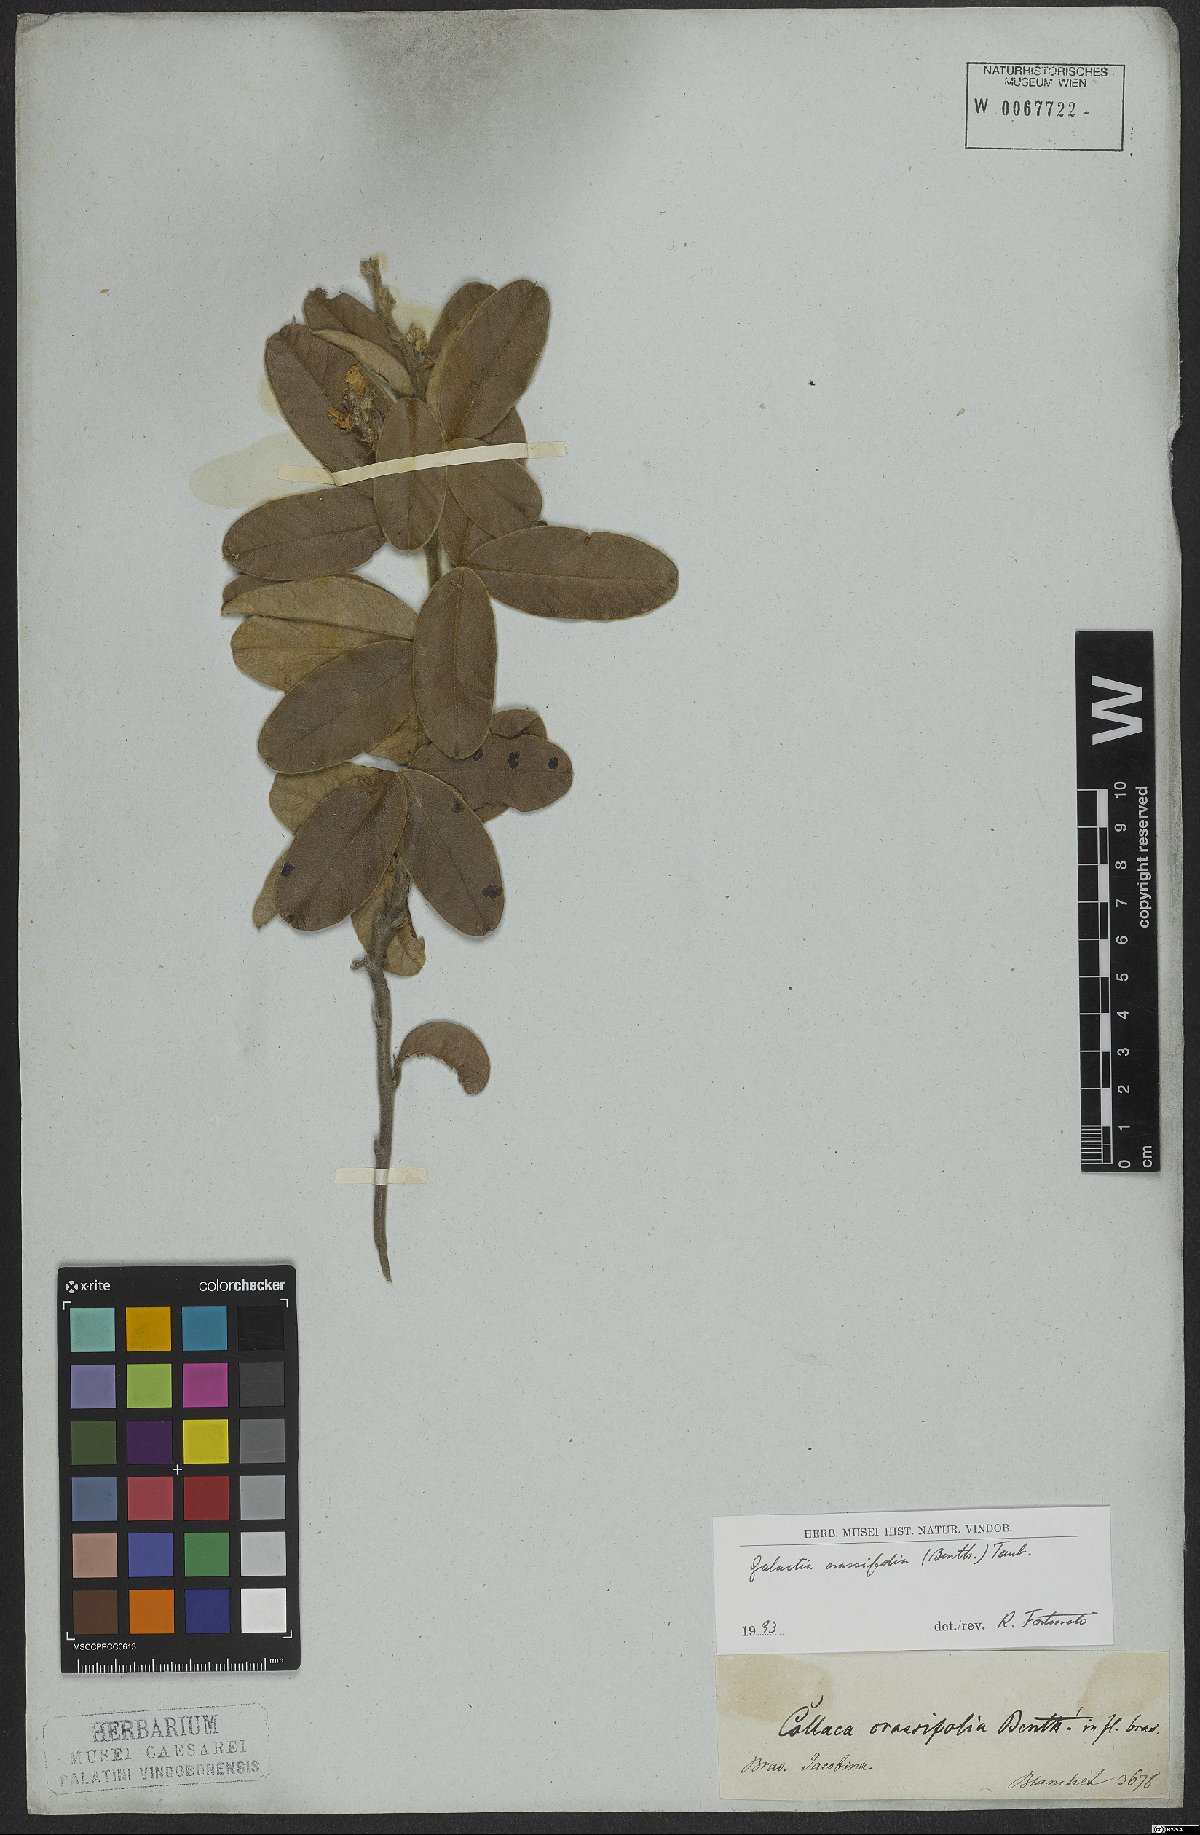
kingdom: Plantae
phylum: Tracheophyta
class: Magnoliopsida
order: Fabales
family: Fabaceae
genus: Betencourtia
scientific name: Betencourtia crassifolia
